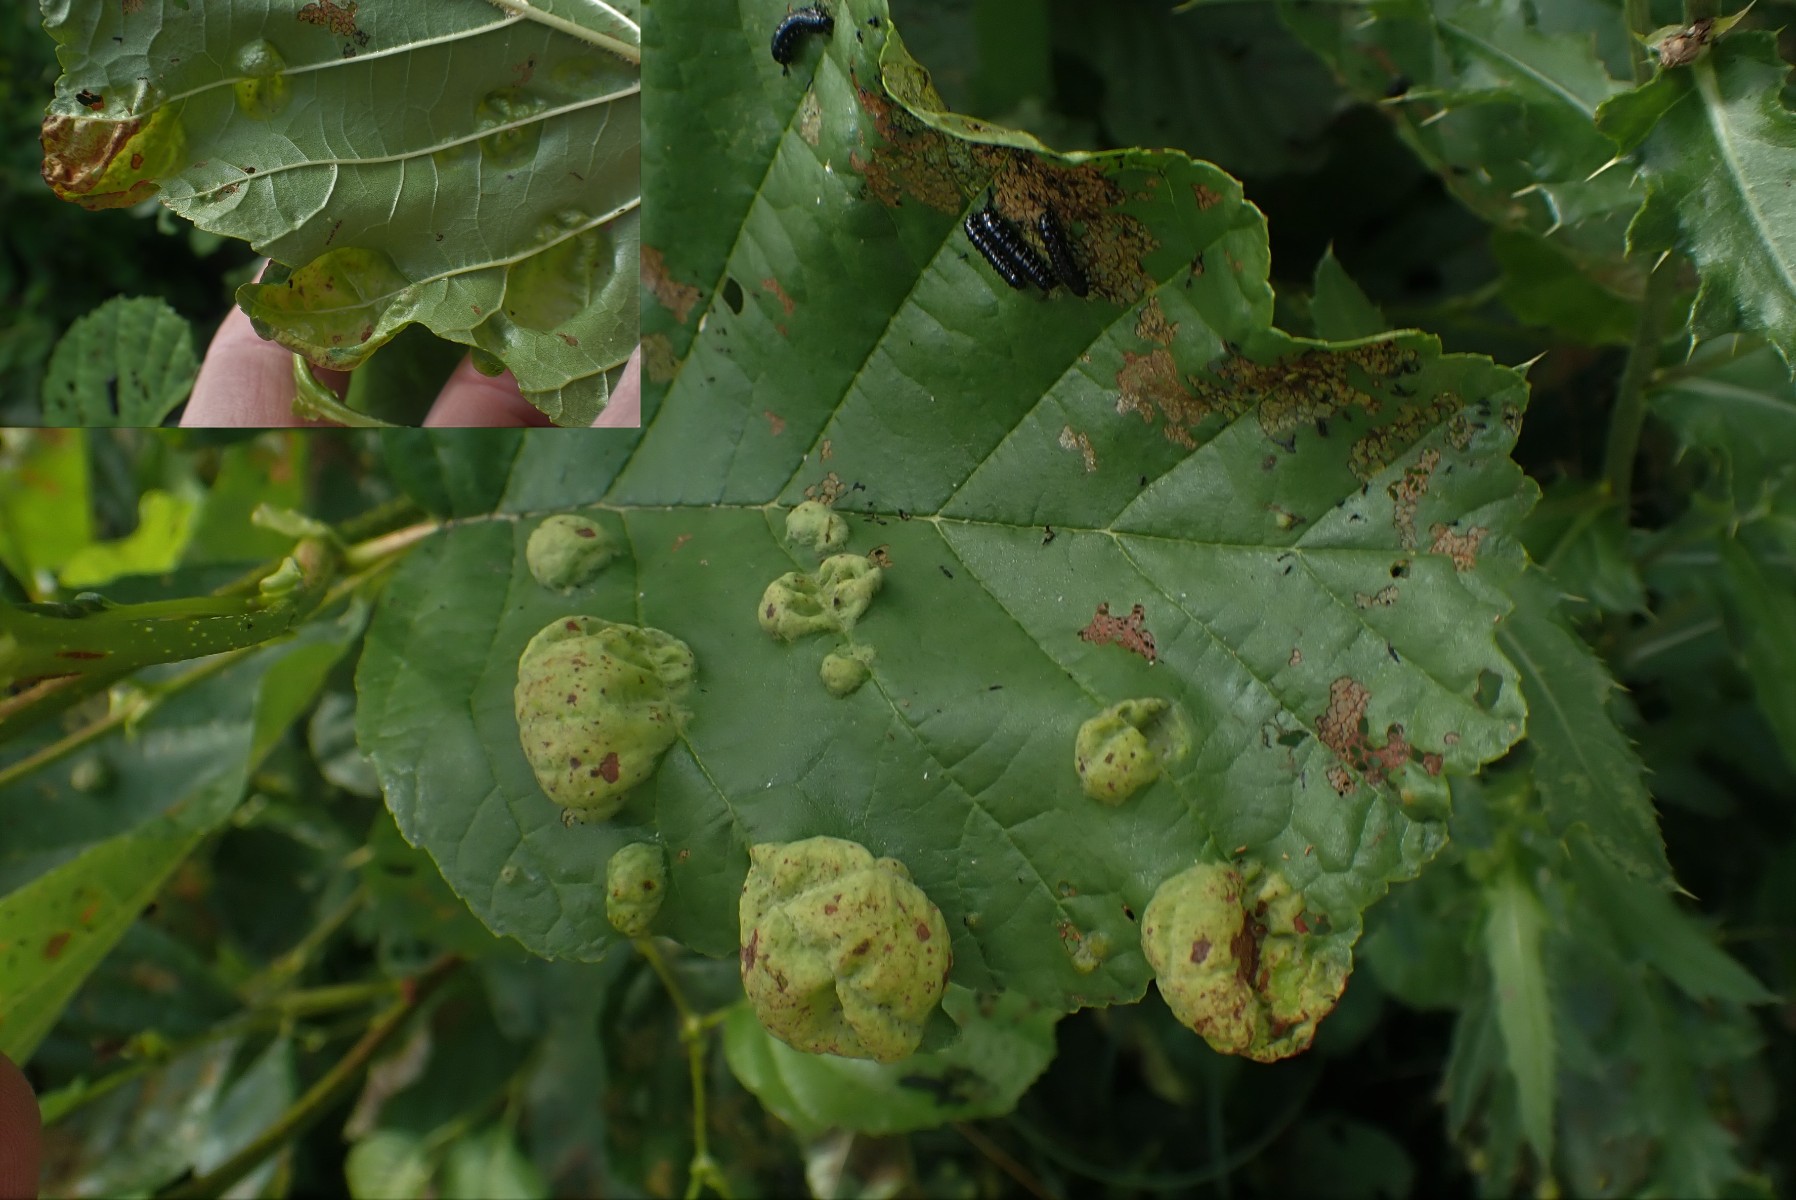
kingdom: Fungi
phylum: Ascomycota
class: Taphrinomycetes
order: Taphrinales
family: Taphrinaceae
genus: Taphrina
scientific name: Taphrina tosquinetii
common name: Alder wrinkle
